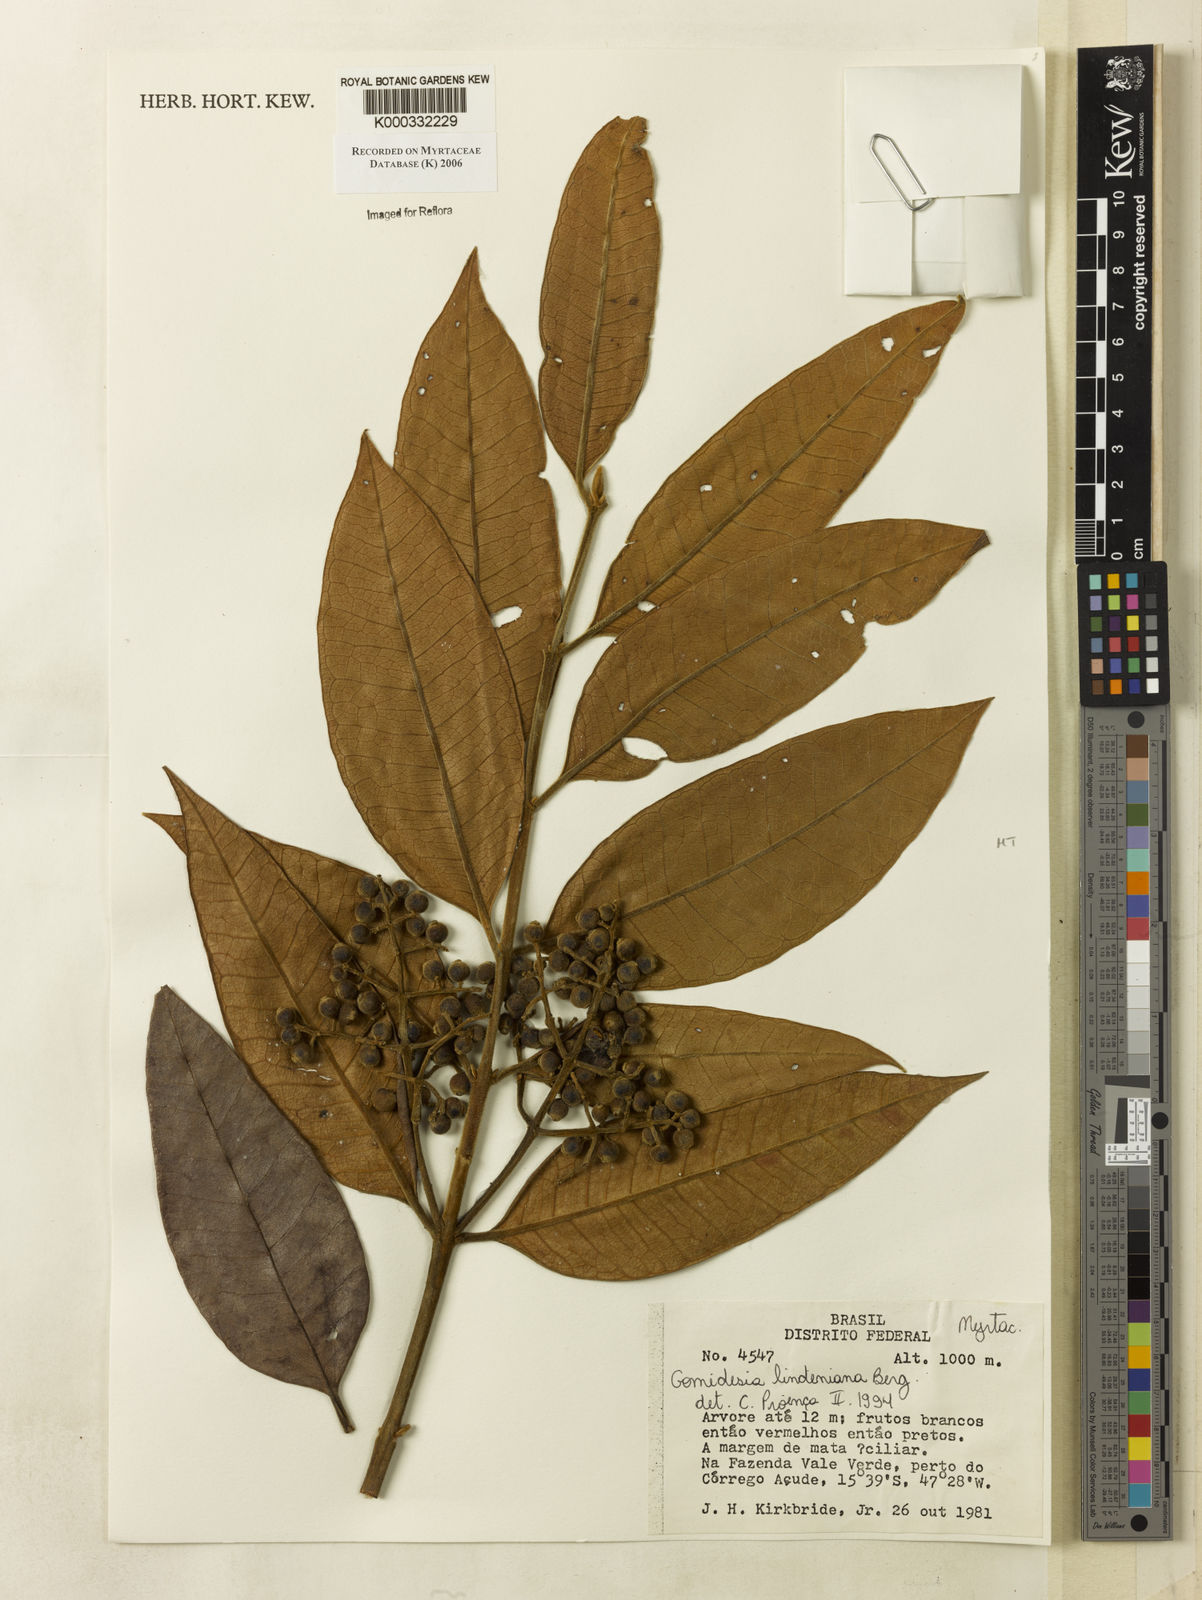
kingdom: Plantae
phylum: Tracheophyta
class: Magnoliopsida
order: Myrtales
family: Myrtaceae
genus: Myrcia
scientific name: Myrcia fenzliana
